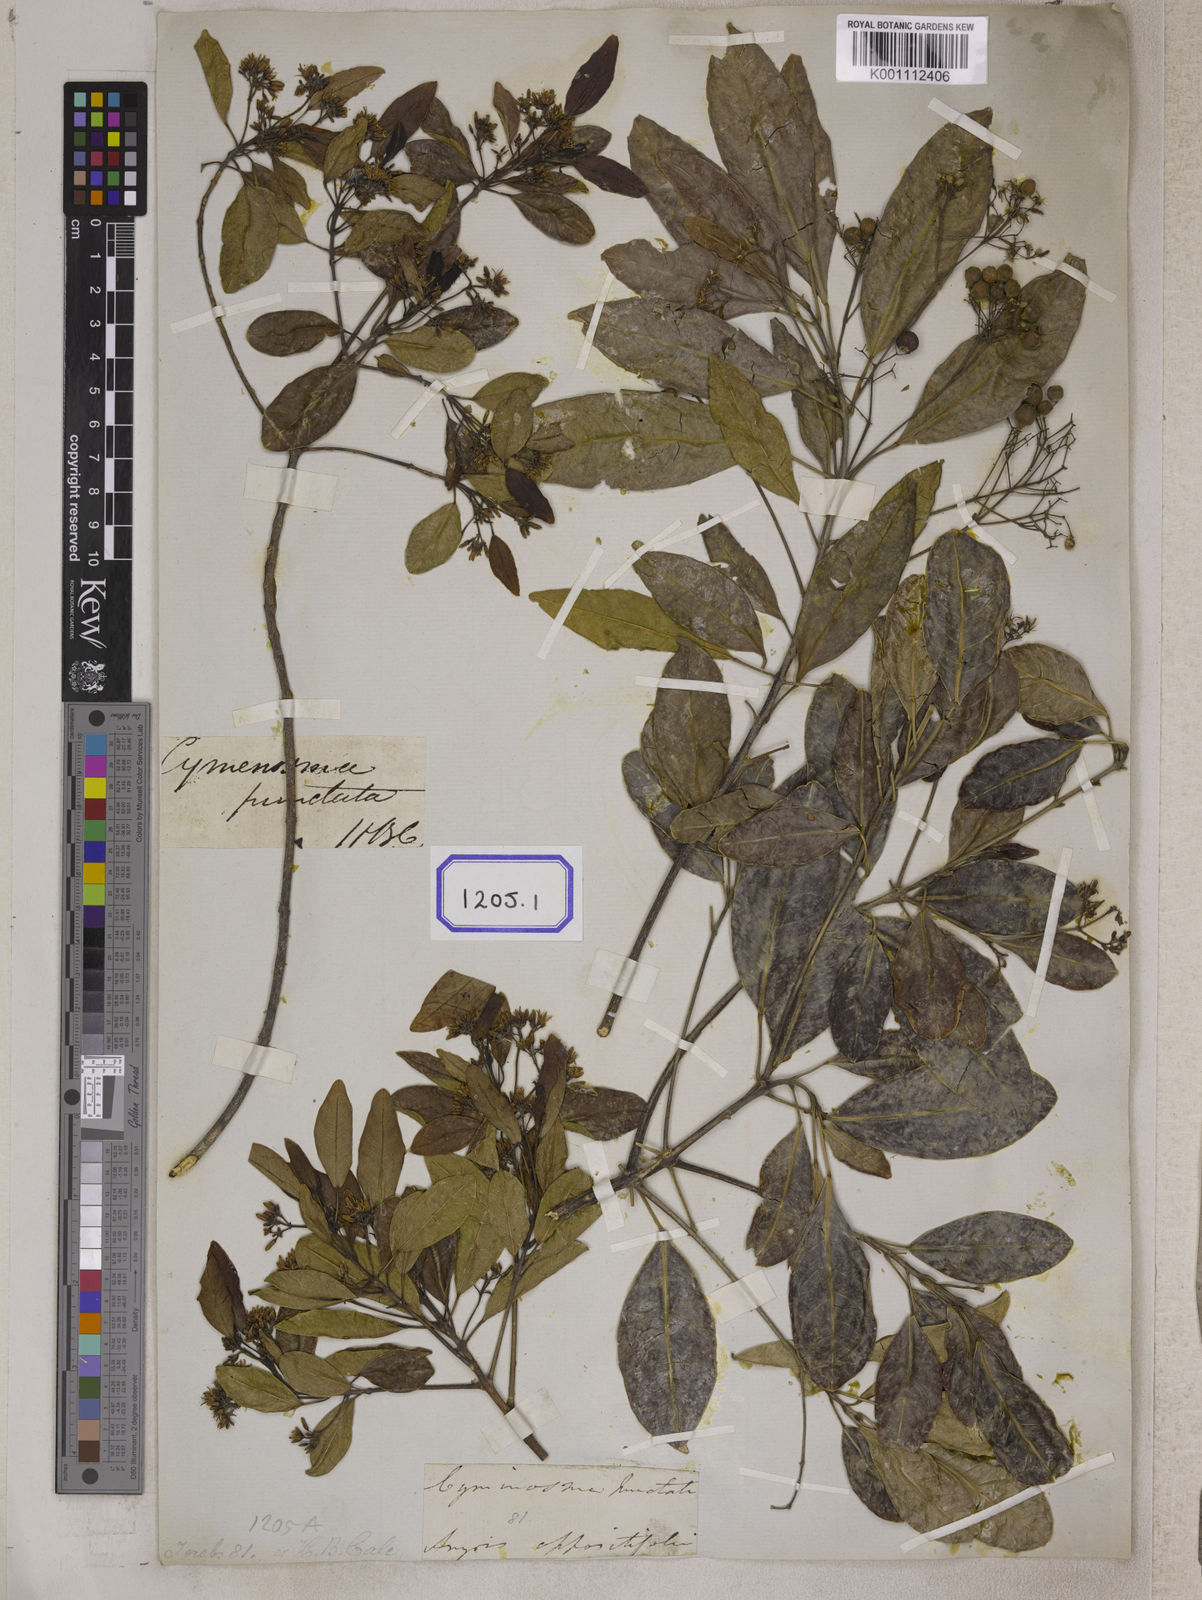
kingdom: Plantae
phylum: Tracheophyta
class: Magnoliopsida
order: Sapindales
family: Rutaceae
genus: Acronychia
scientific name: Acronychia
